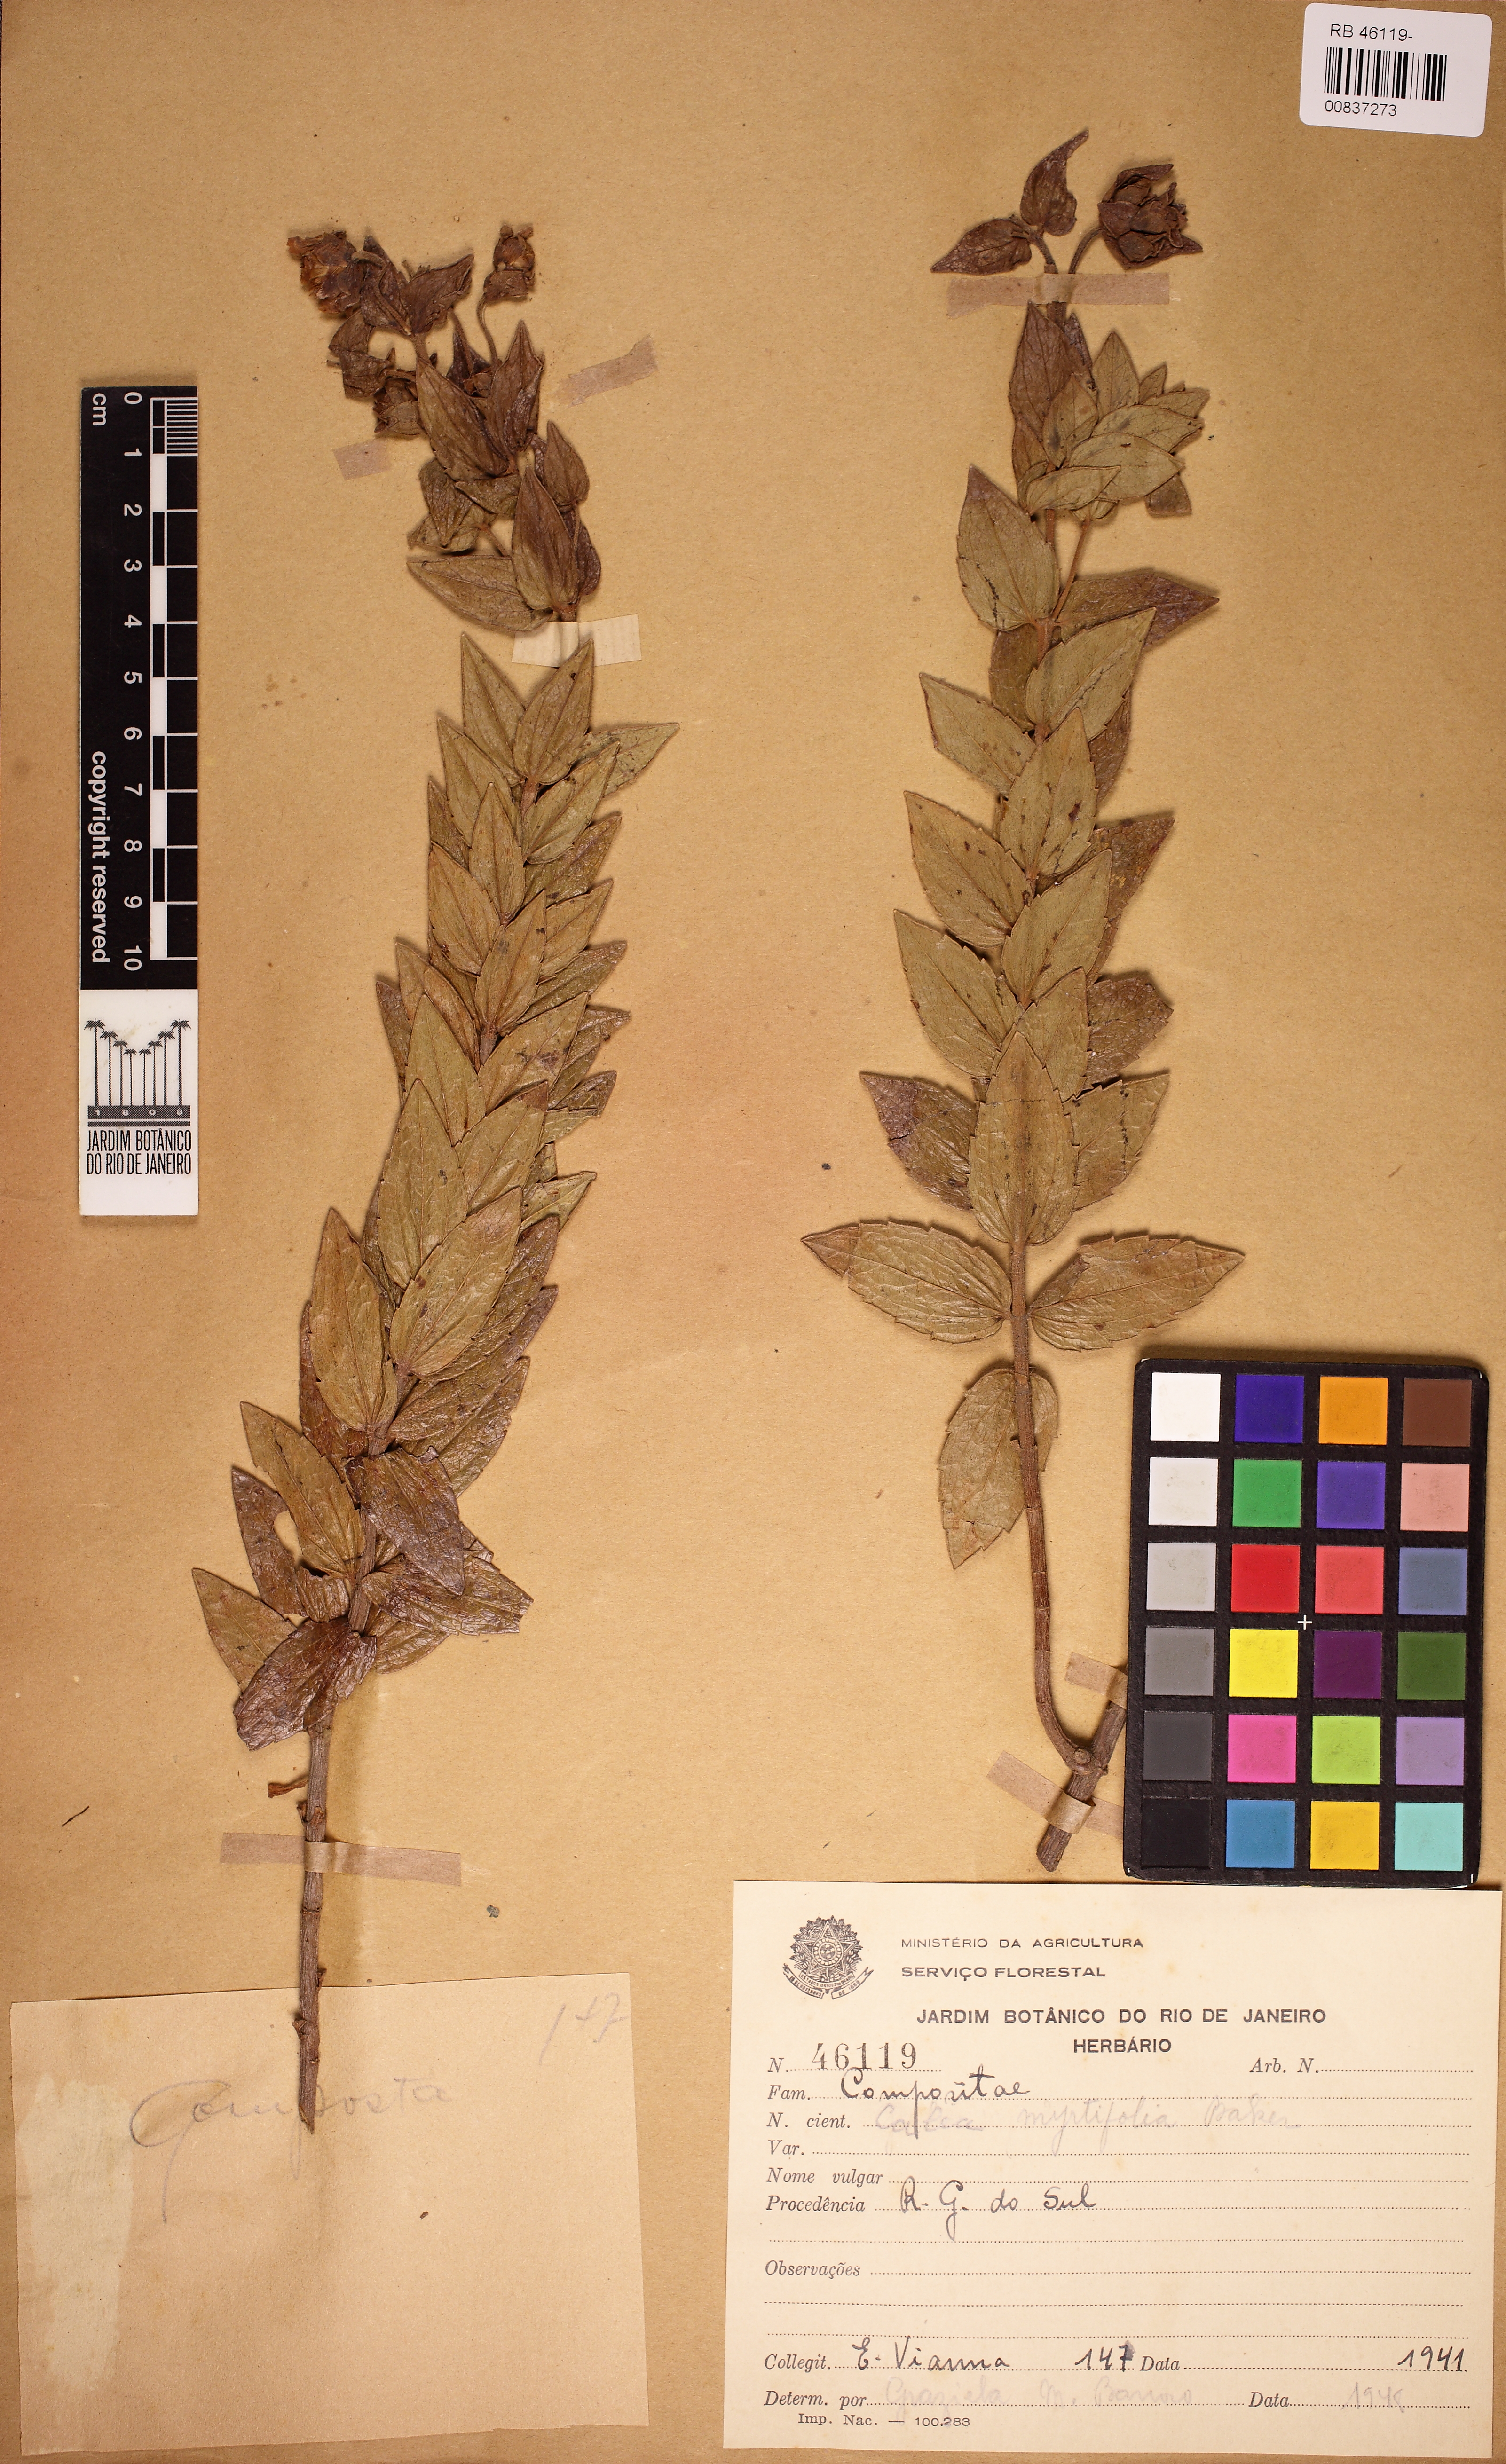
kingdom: Plantae
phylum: Tracheophyta
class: Magnoliopsida
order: Asterales
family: Asteraceae
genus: Calea
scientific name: Calea phyllolepis
